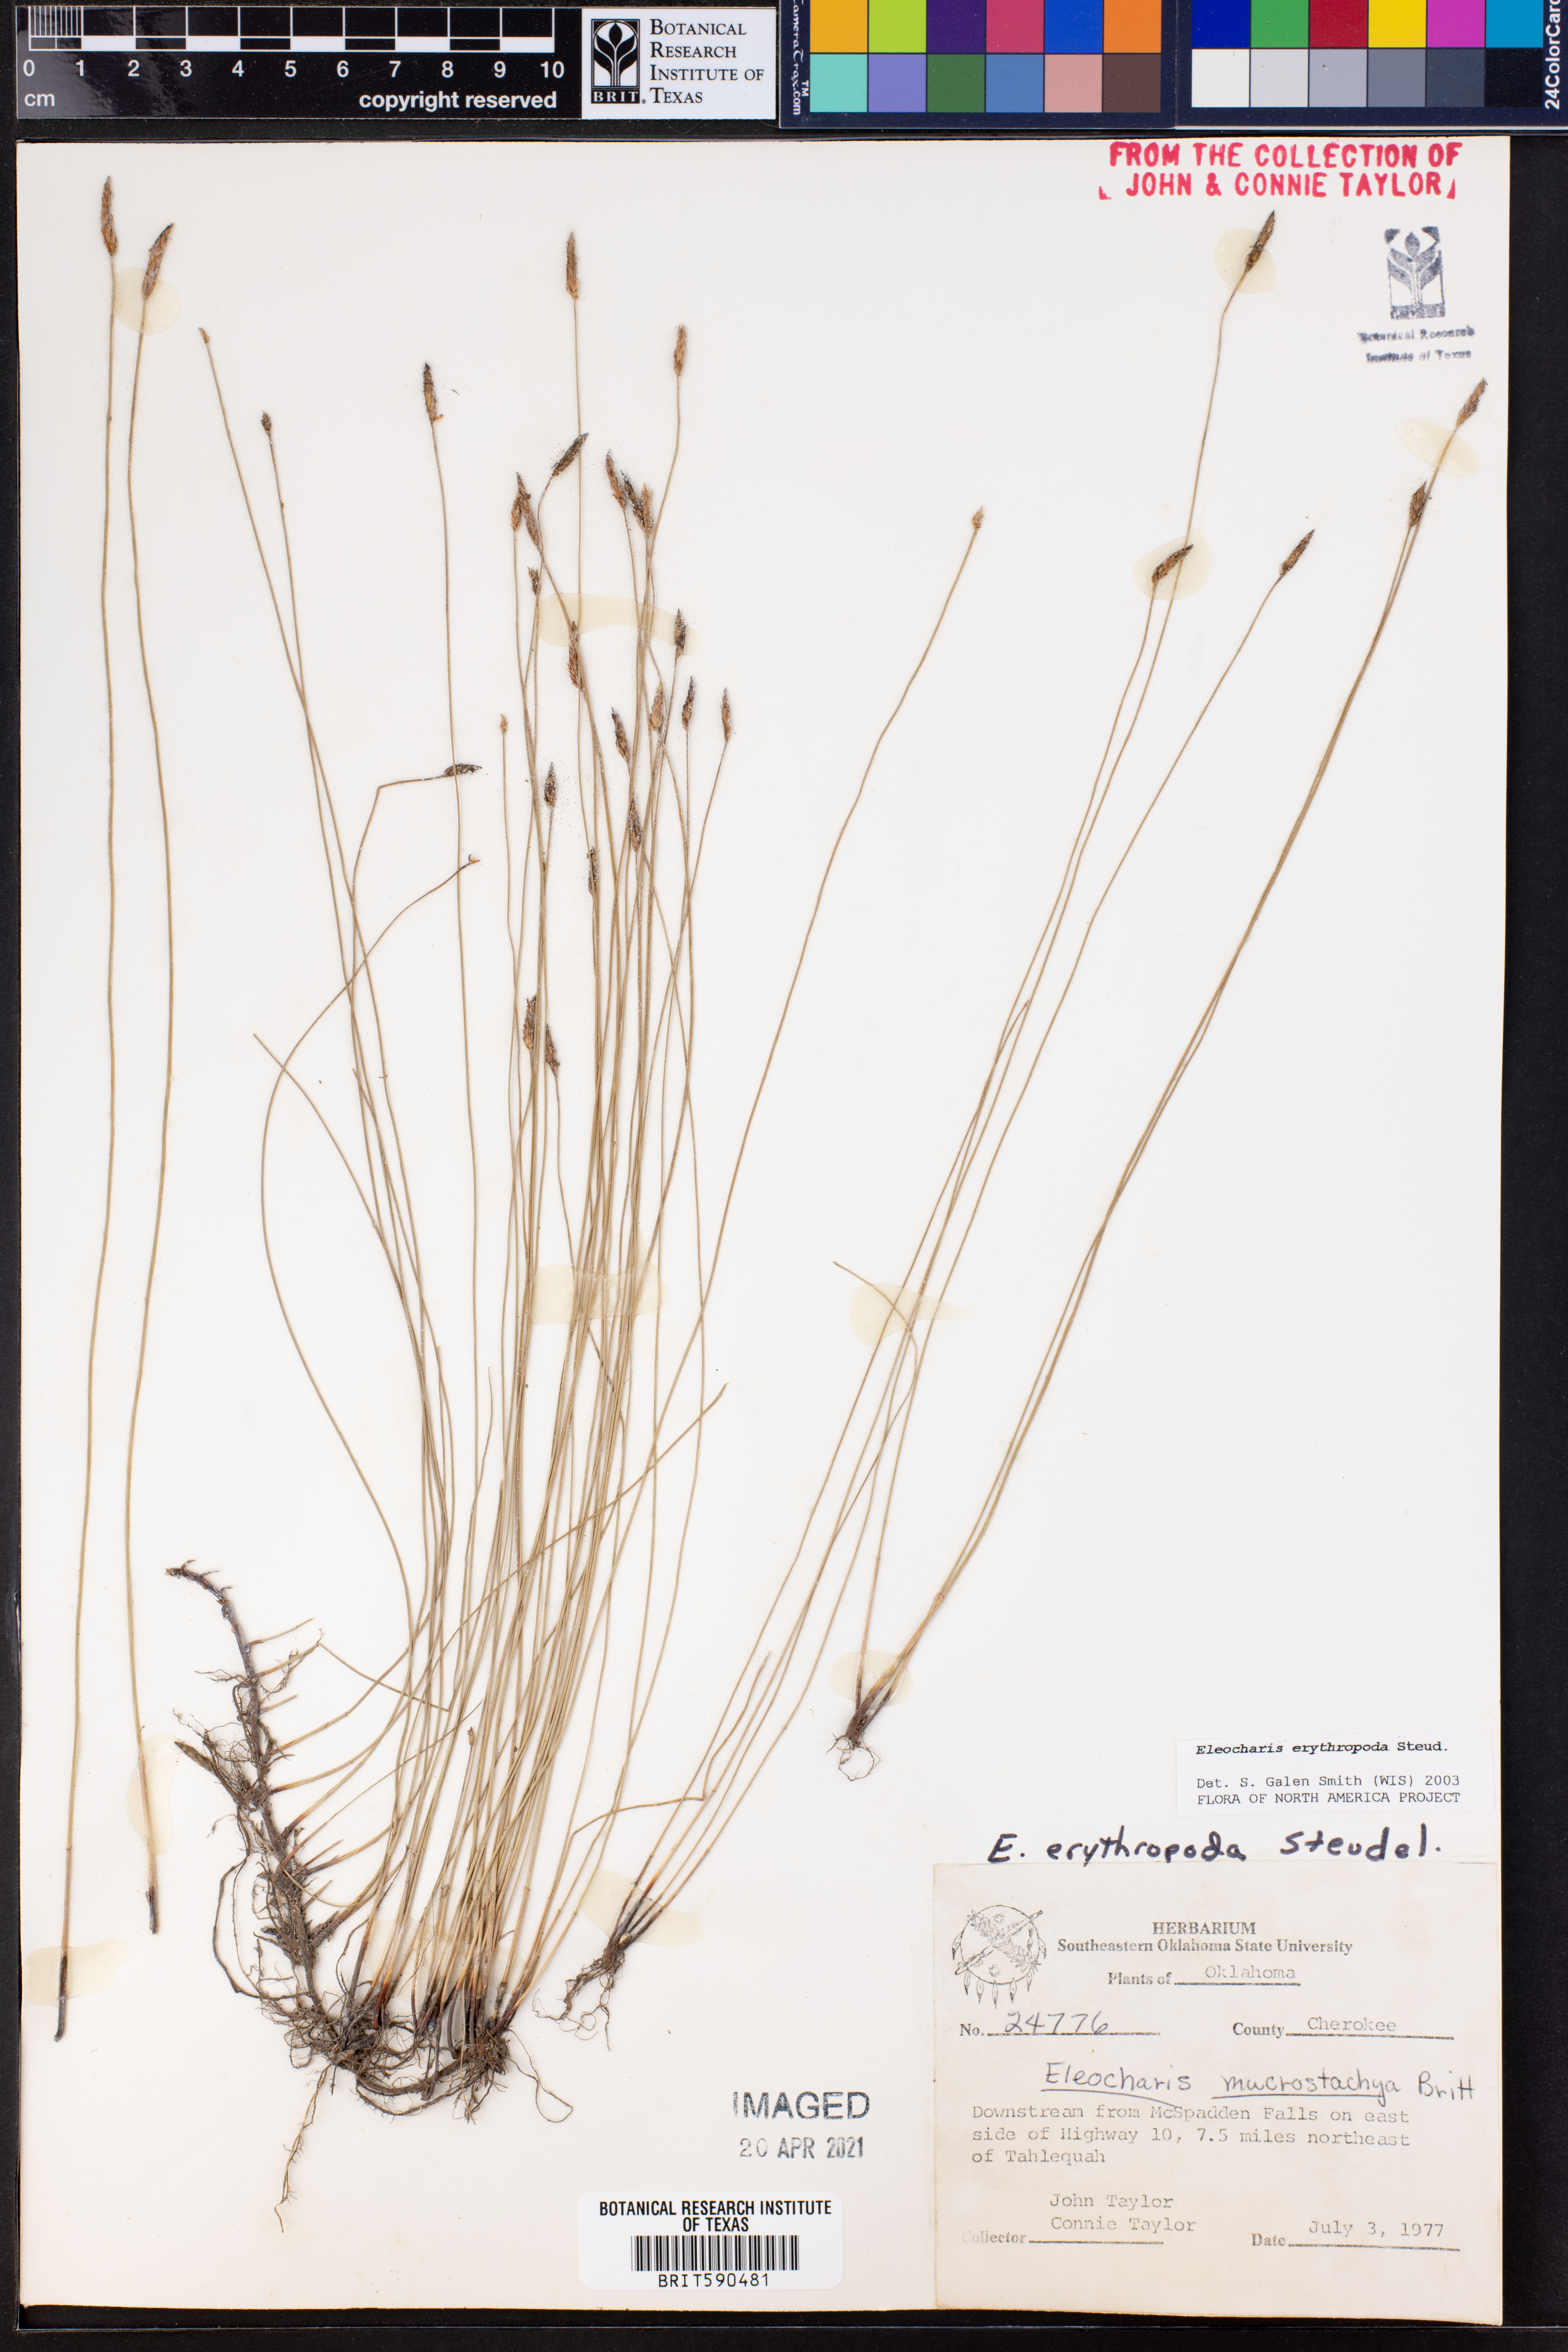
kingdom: Plantae
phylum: Tracheophyta
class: Liliopsida
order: Poales
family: Cyperaceae
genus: Eleocharis
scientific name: Eleocharis erythropoda
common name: Bald spikerush
